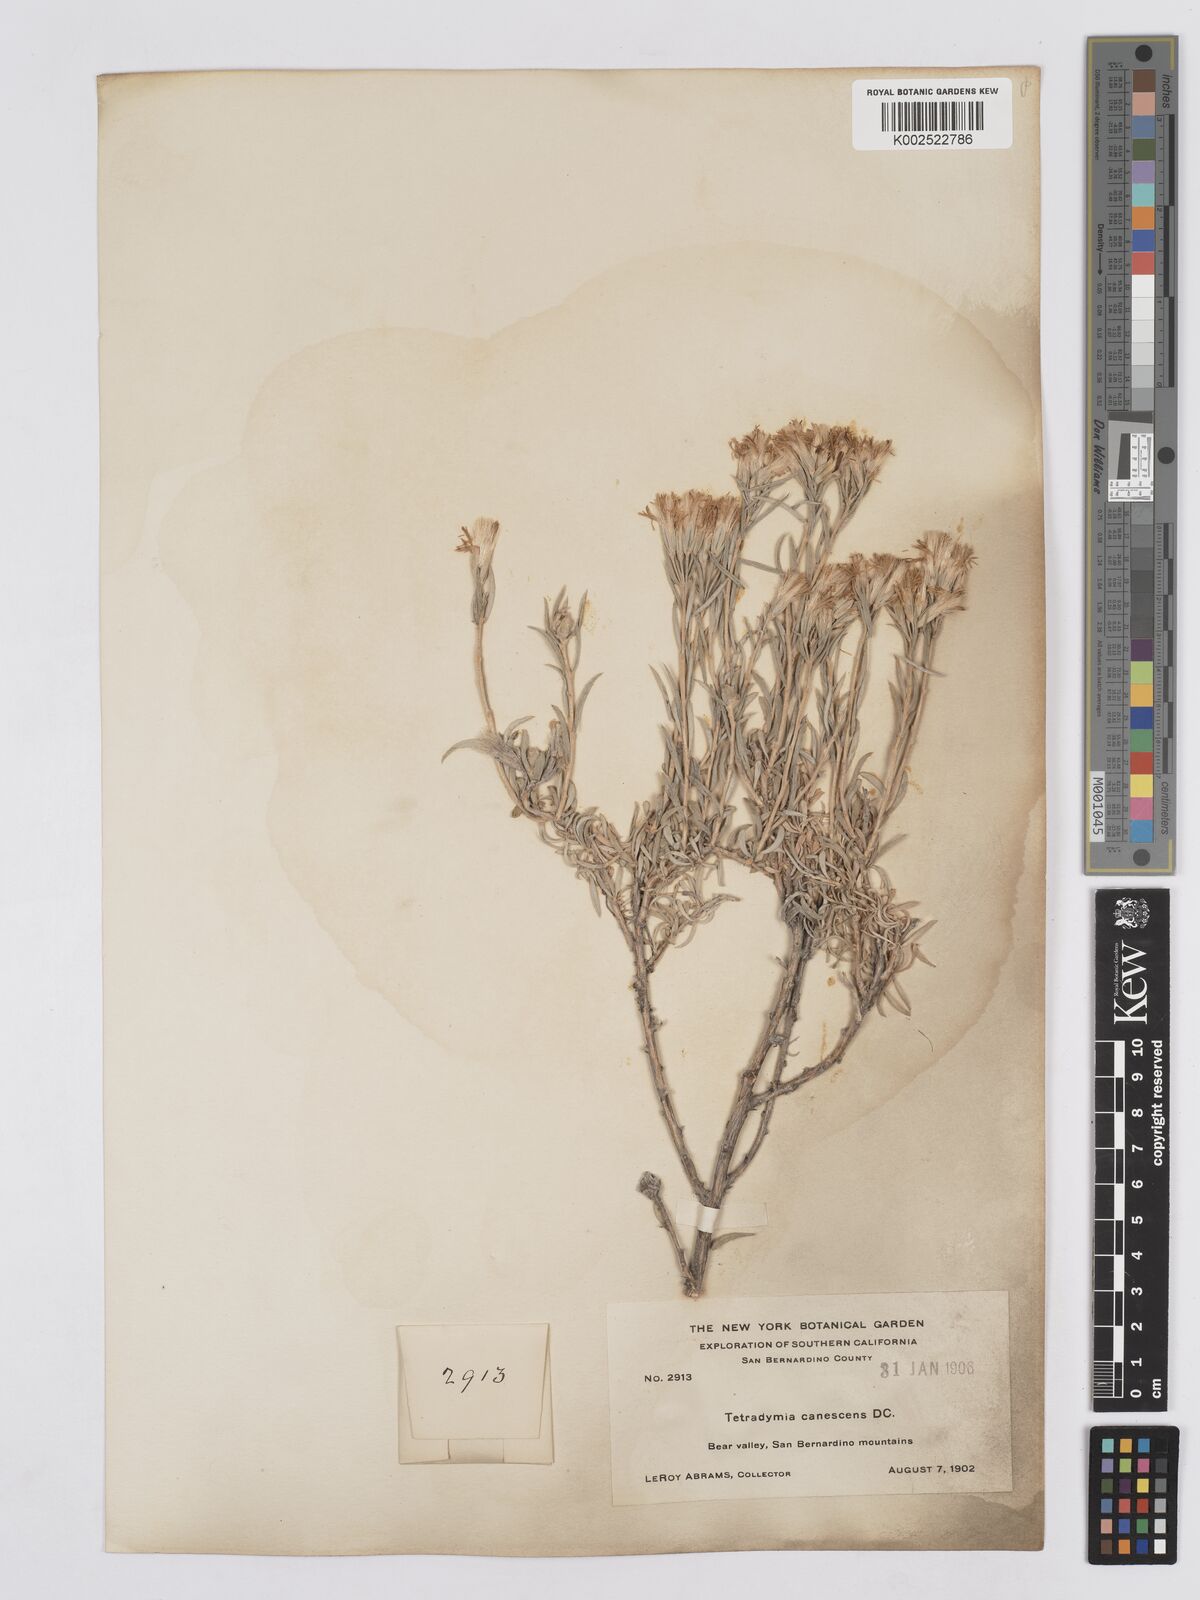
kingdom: Plantae
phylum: Tracheophyta
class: Magnoliopsida
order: Asterales
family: Asteraceae
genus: Tetradymia
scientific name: Tetradymia canescens
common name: Spineless horsebrush
